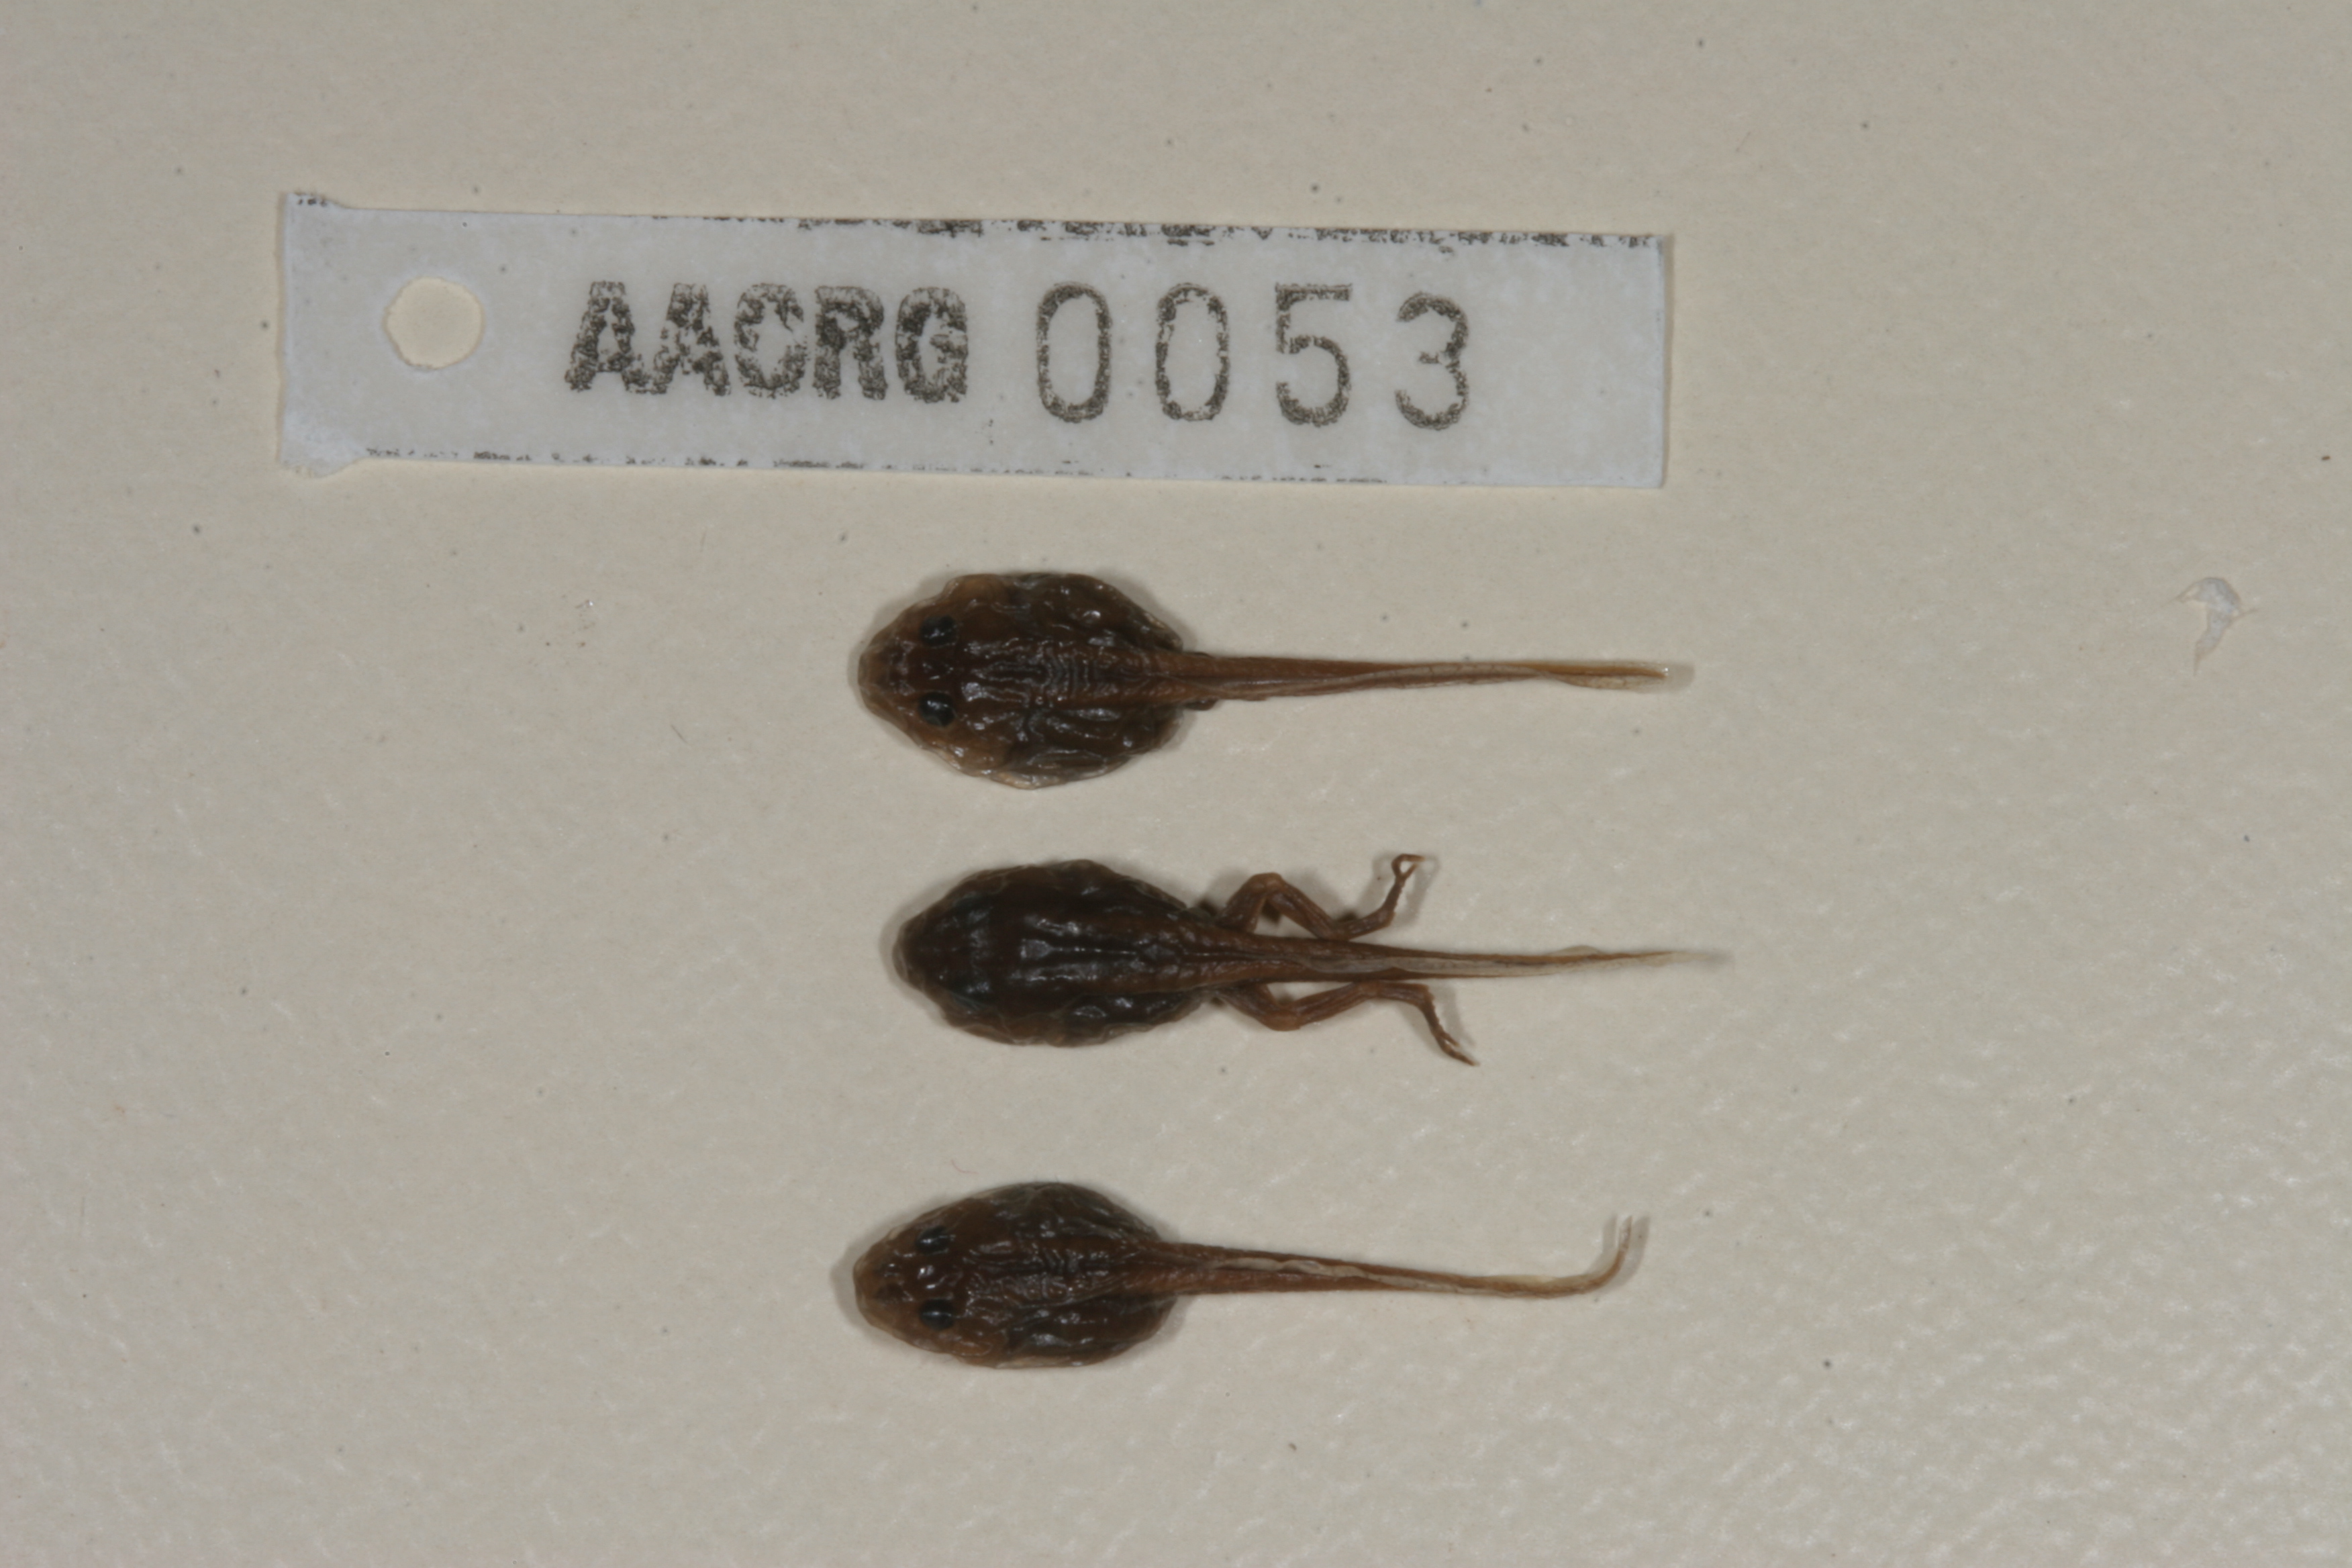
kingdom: Animalia
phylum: Chordata
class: Amphibia
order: Anura
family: Bufonidae
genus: Sclerophrys
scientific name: Sclerophrys gutturalis
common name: African common toad
